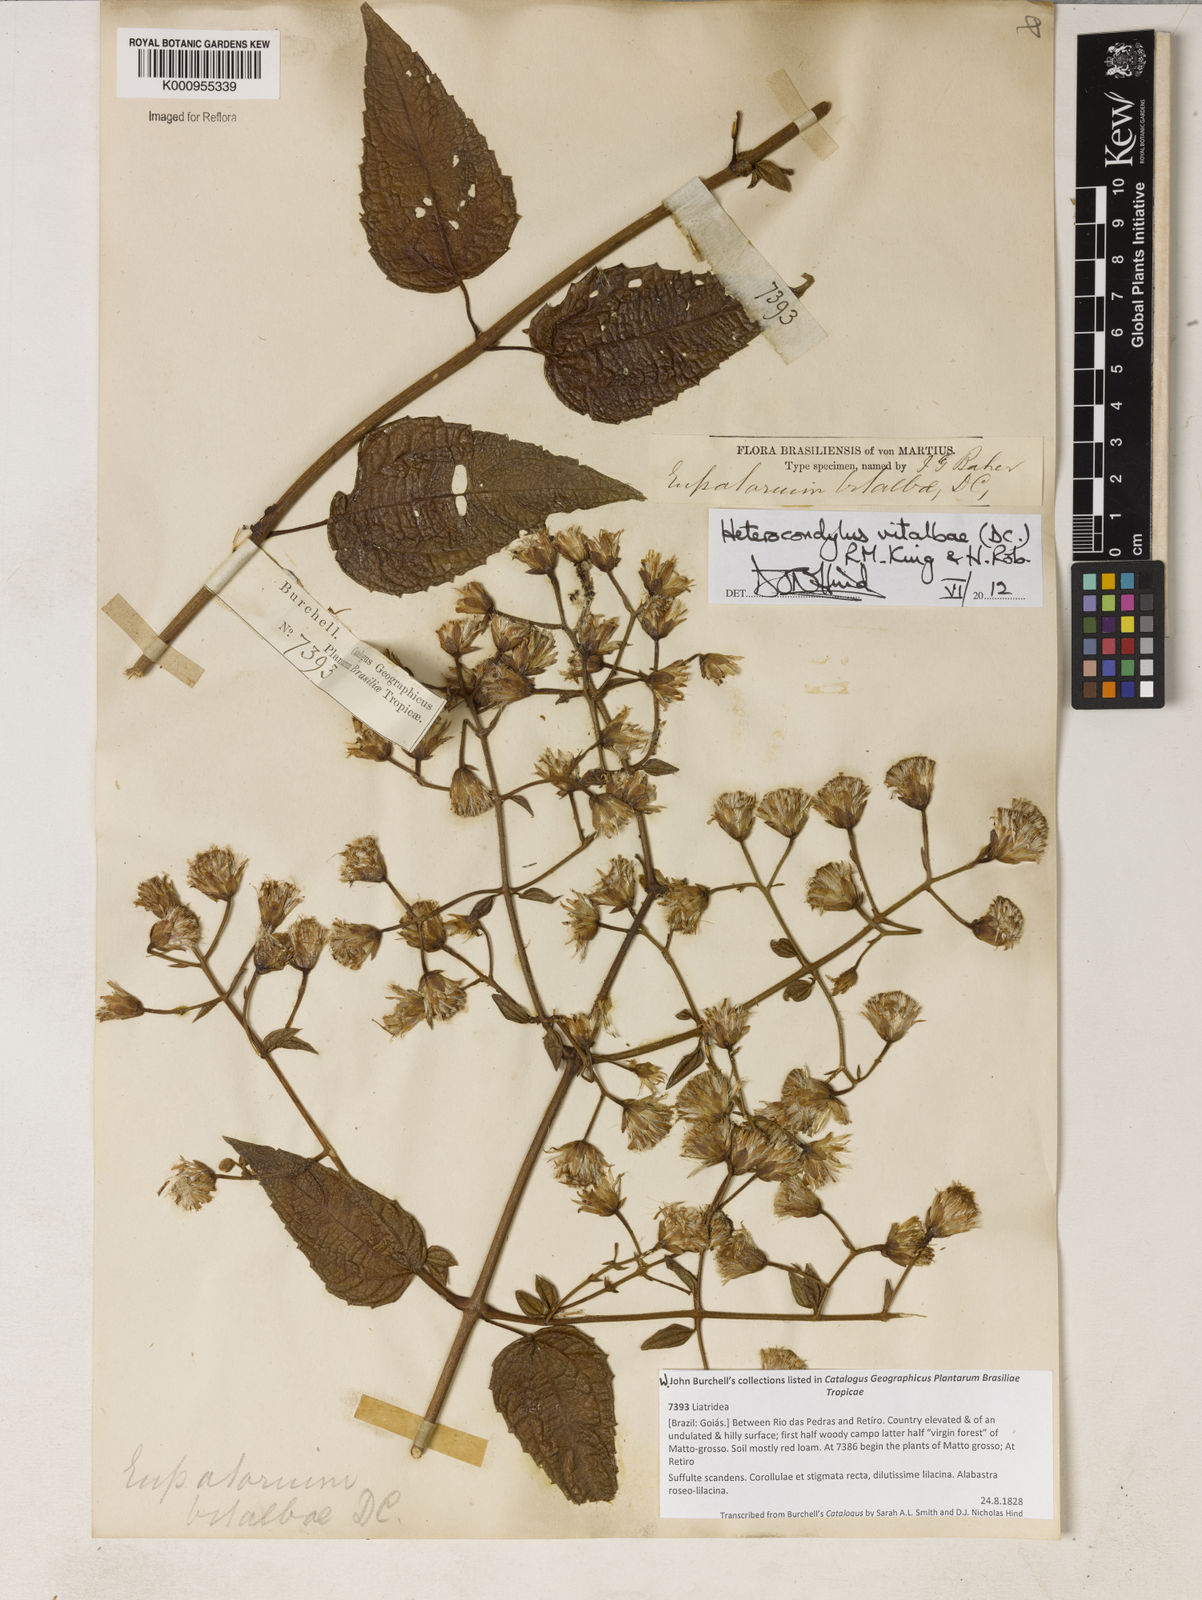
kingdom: Plantae
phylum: Tracheophyta
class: Magnoliopsida
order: Asterales
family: Asteraceae
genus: Heterocondylus
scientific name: Heterocondylus vitalbae
